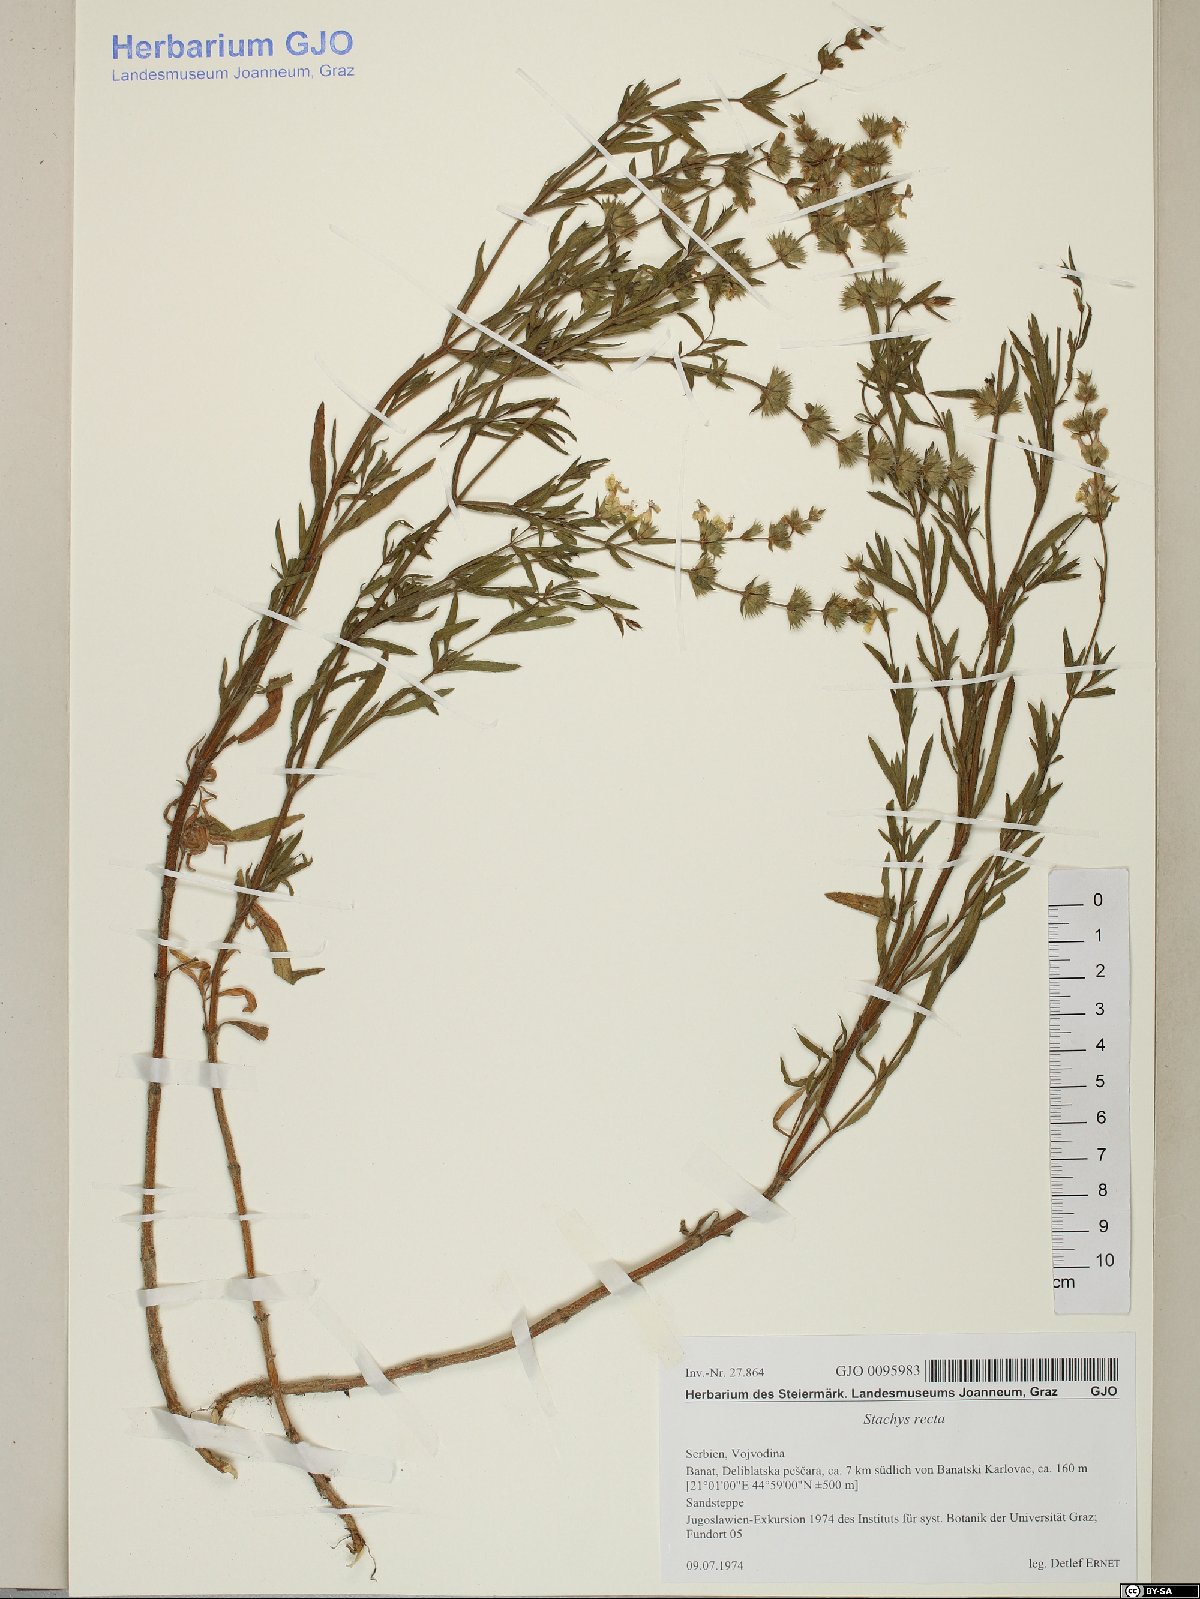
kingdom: Plantae
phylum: Tracheophyta
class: Magnoliopsida
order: Lamiales
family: Lamiaceae
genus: Stachys
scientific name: Stachys recta
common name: Perennial yellow-woundwort
